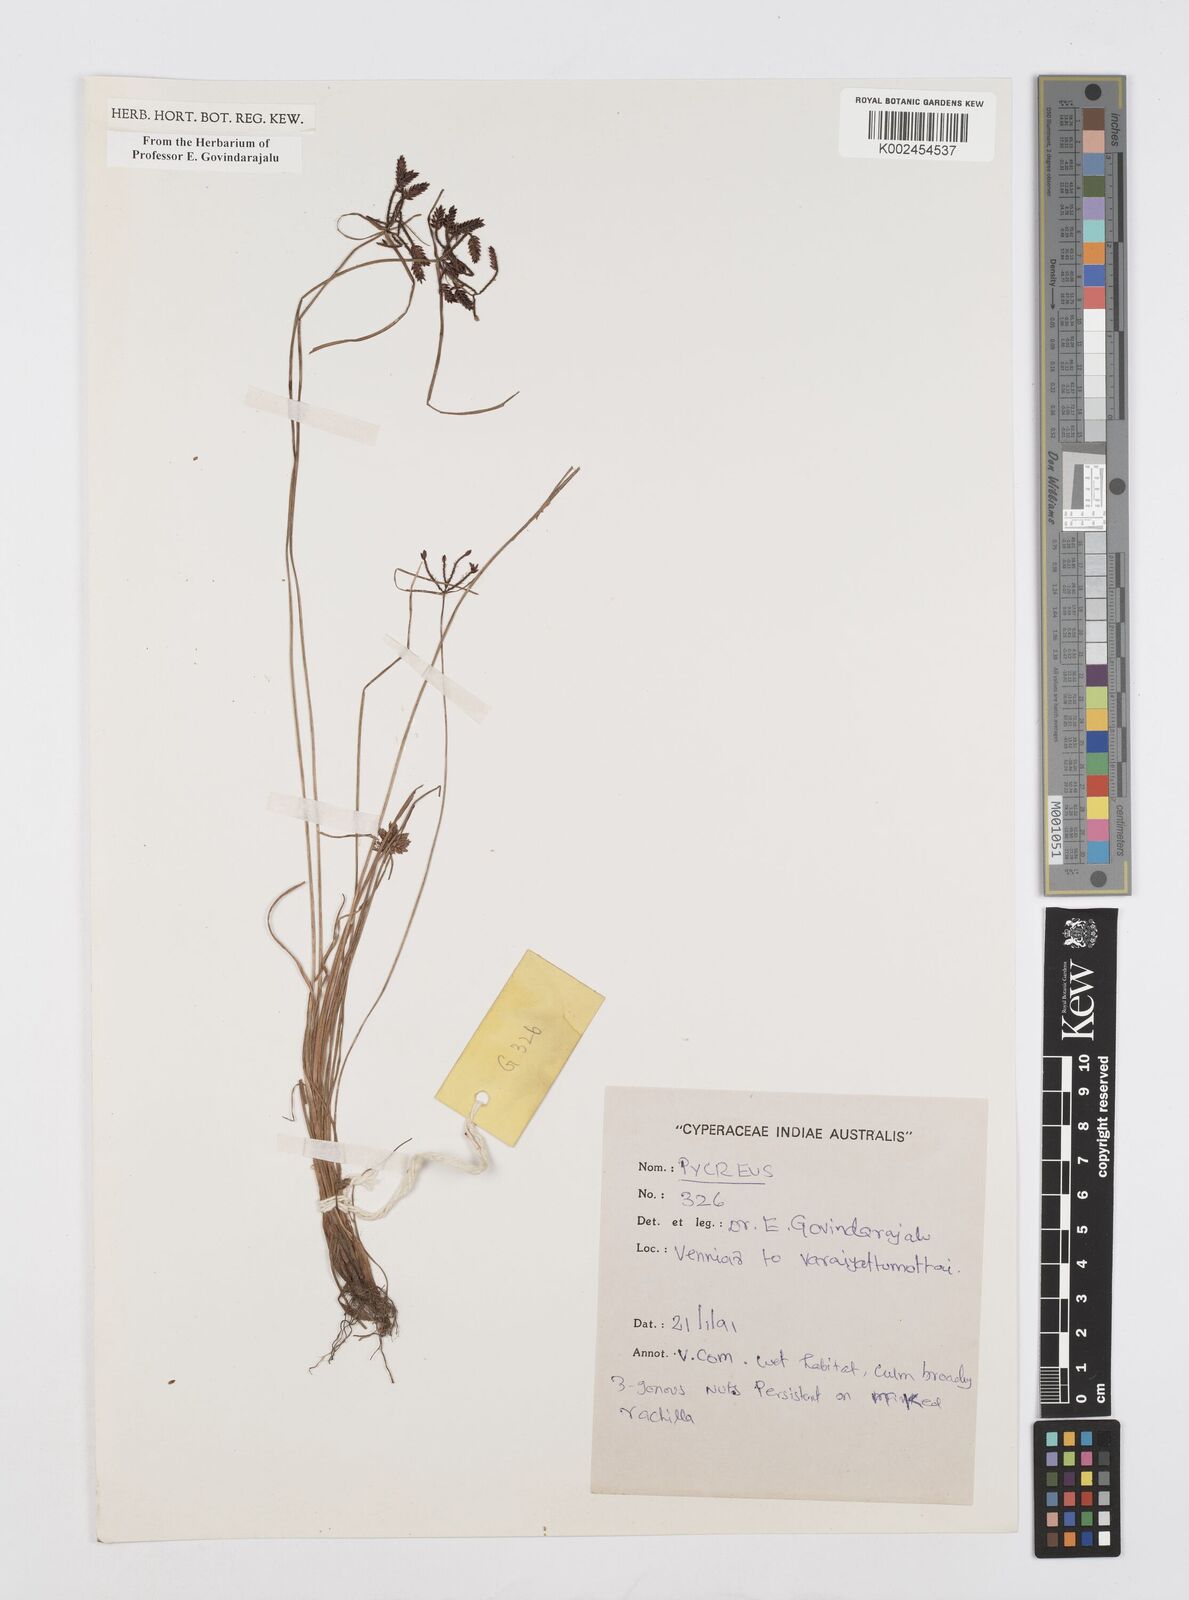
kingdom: Plantae
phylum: Tracheophyta
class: Liliopsida
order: Poales
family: Cyperaceae
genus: Cyperus
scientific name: Cyperus
